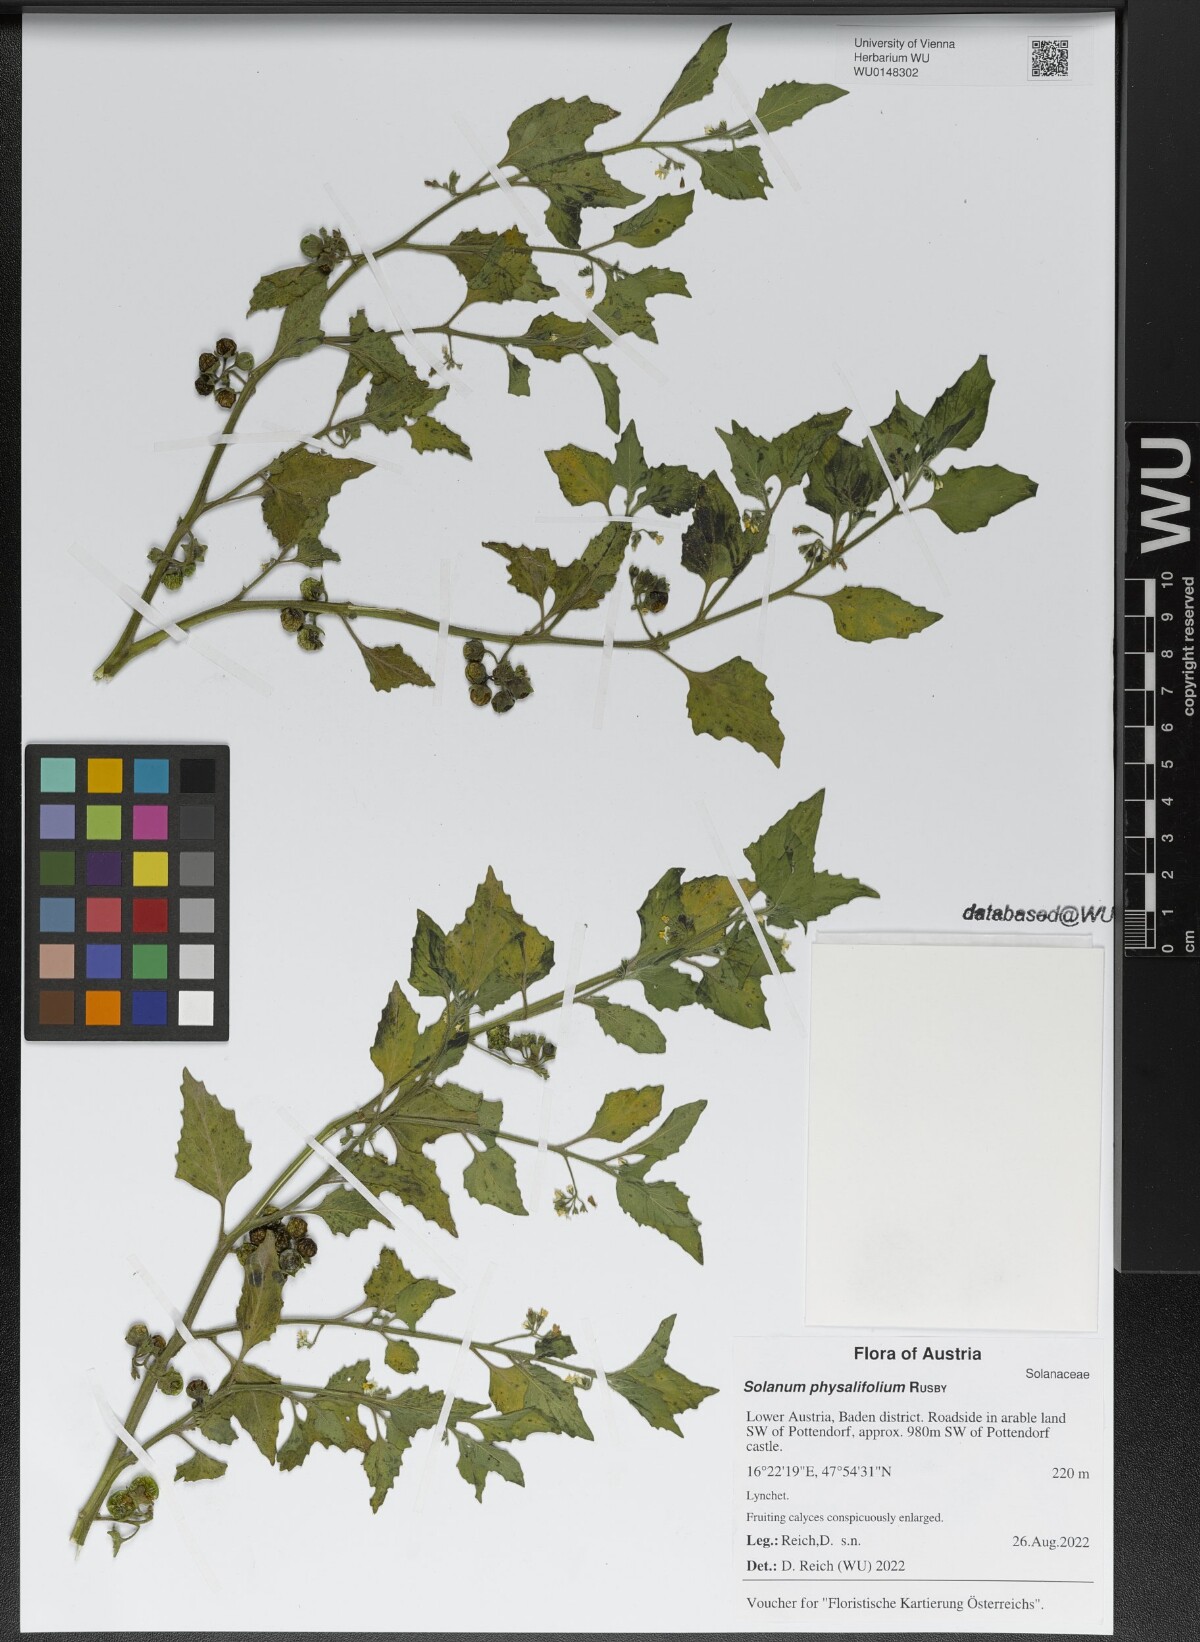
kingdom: Plantae
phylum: Tracheophyta
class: Magnoliopsida
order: Solanales
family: Solanaceae
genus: Solanum
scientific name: Solanum physalifolium
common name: Green nightshade
